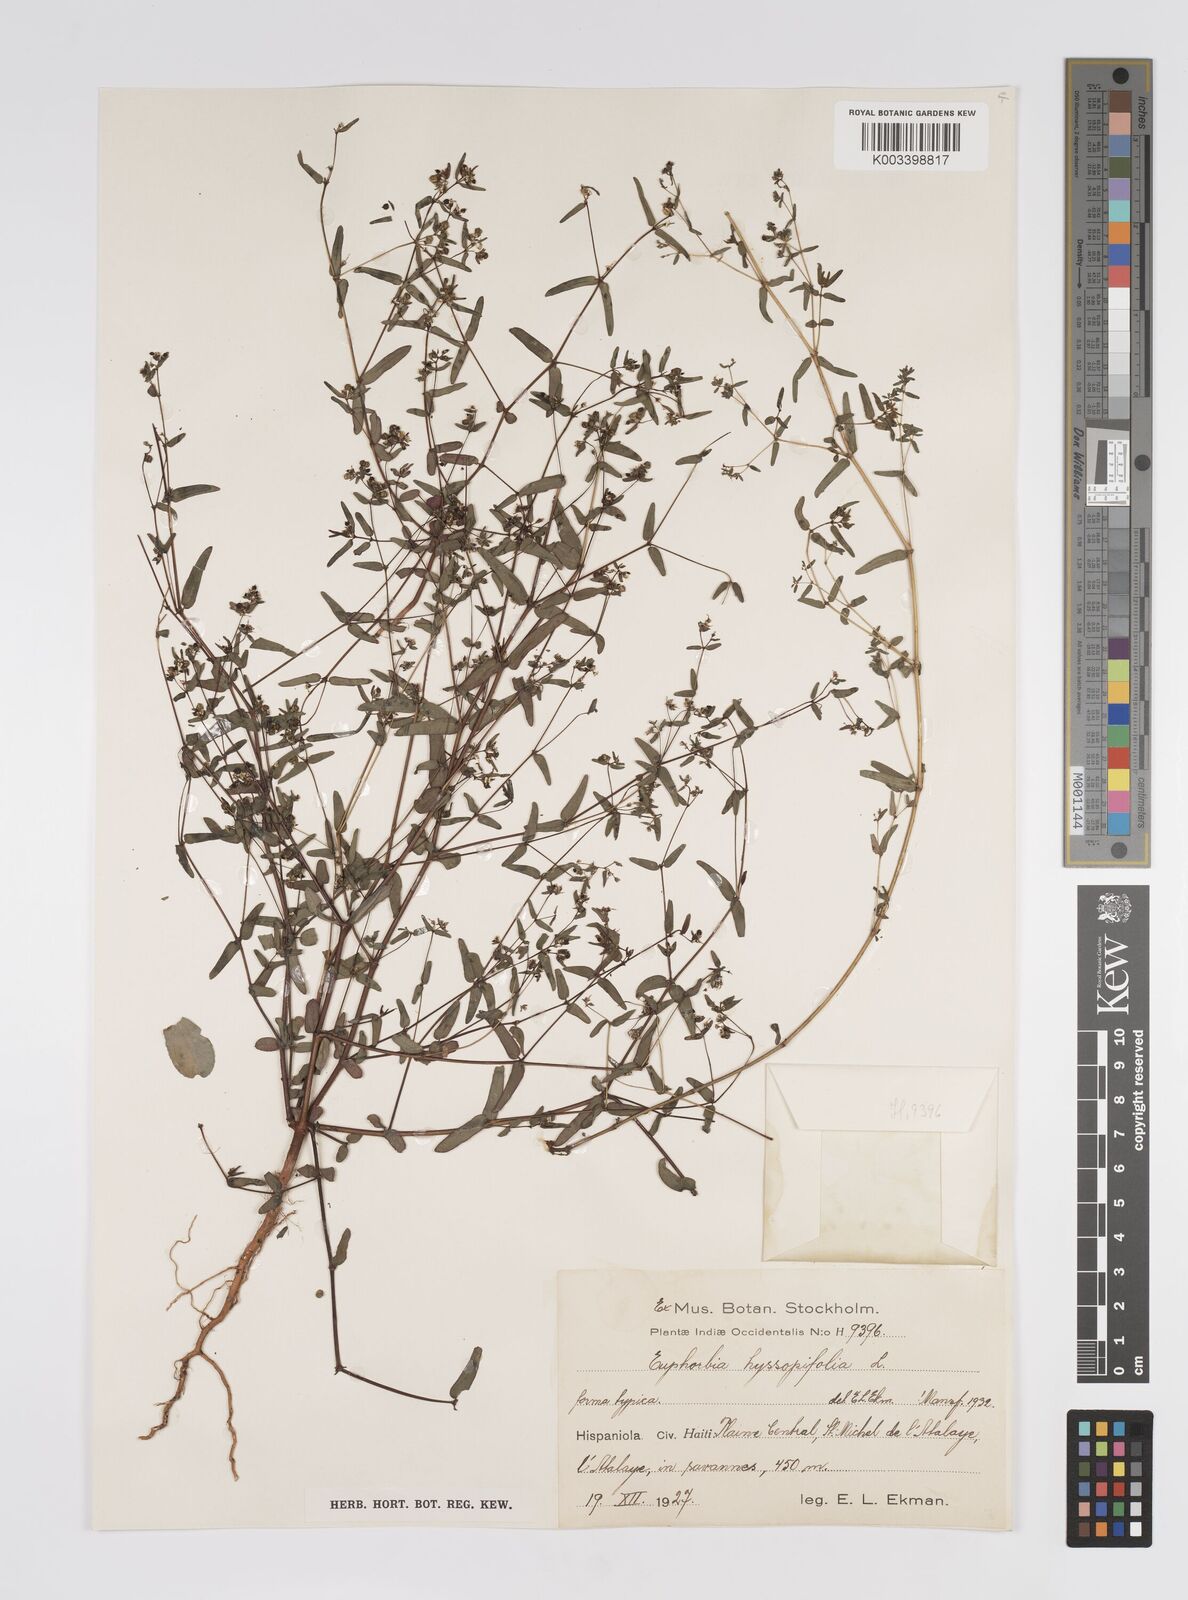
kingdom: Plantae
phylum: Tracheophyta
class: Magnoliopsida
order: Malpighiales
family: Euphorbiaceae
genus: Euphorbia
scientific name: Euphorbia hyssopifolia
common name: Hyssopleaf sandmat
